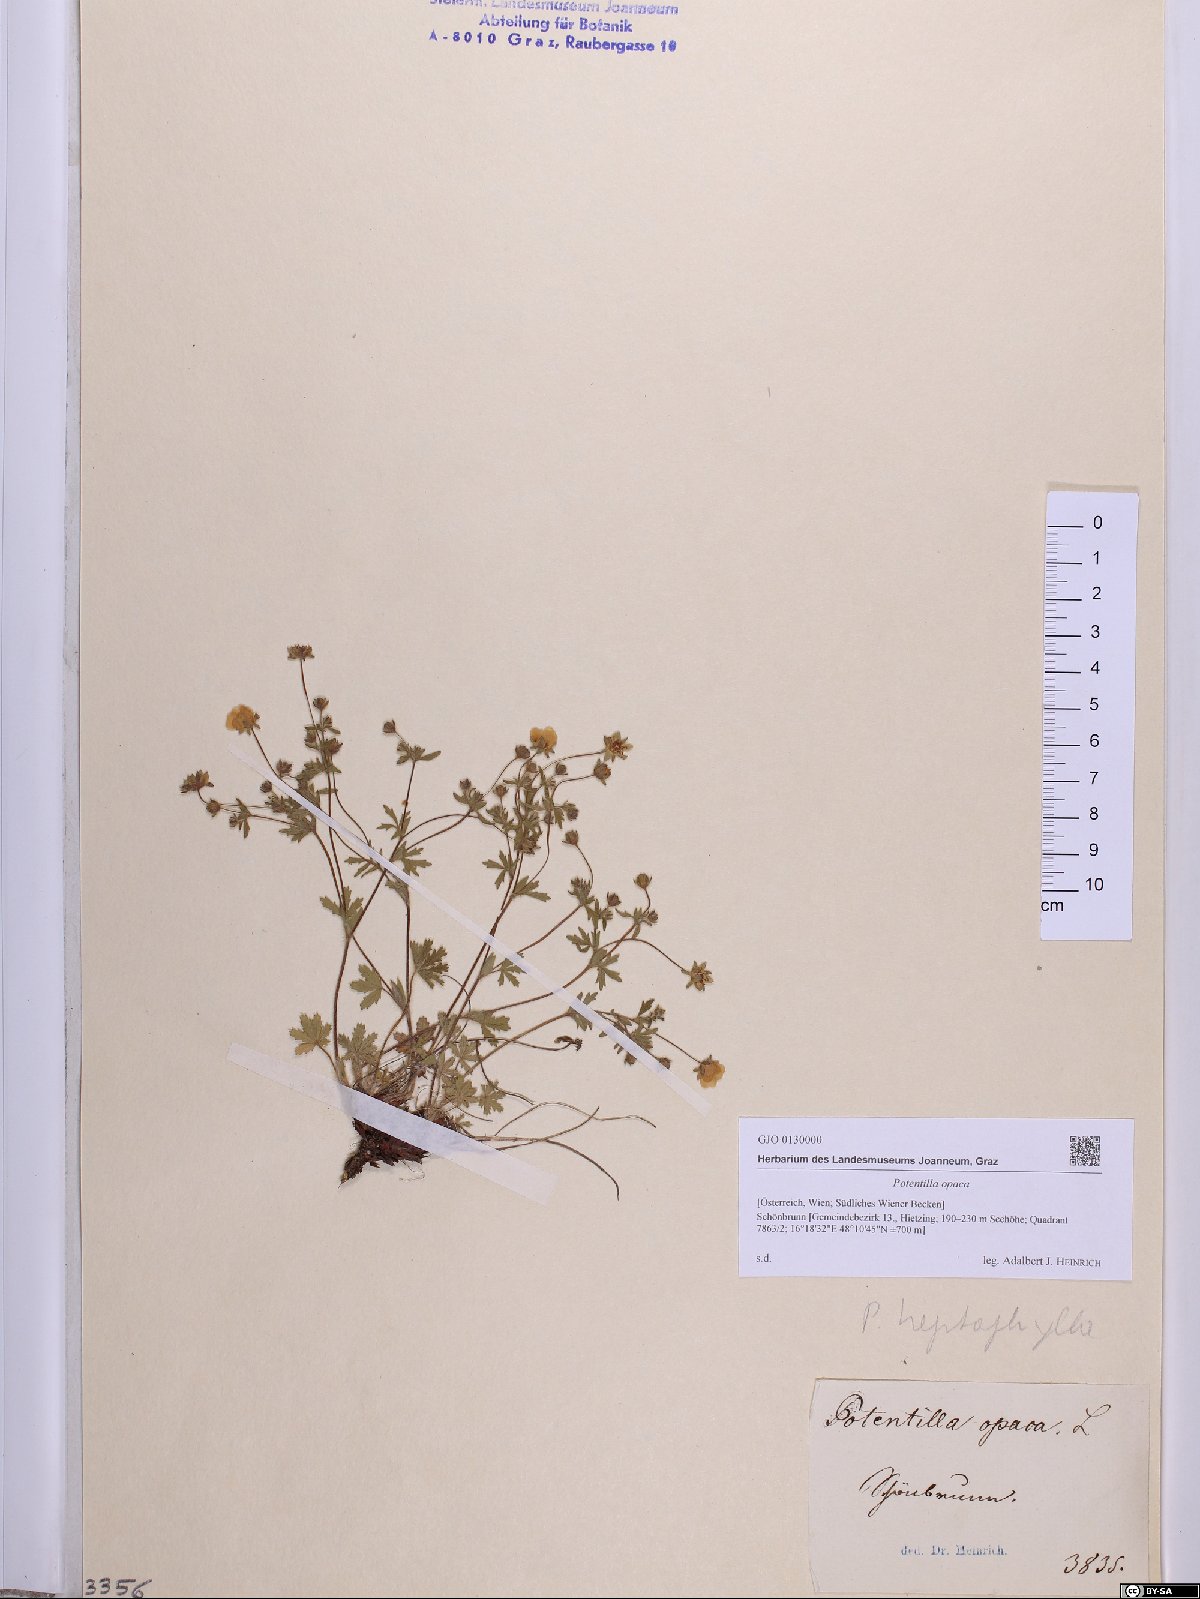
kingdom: Plantae
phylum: Tracheophyta
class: Magnoliopsida
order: Rosales
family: Rosaceae
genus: Potentilla
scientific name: Potentilla
